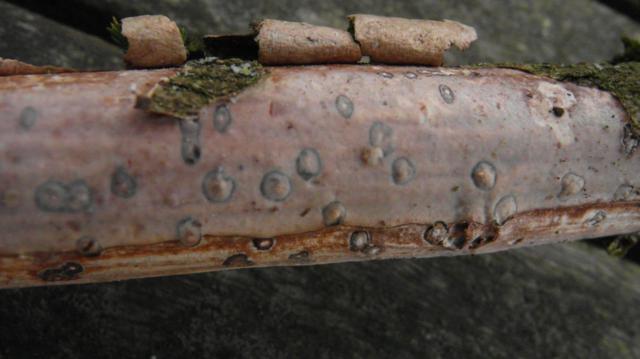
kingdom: Fungi
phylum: Basidiomycota
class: Agaricomycetes
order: Corticiales
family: Vuilleminiaceae
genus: Vuilleminia
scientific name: Vuilleminia comedens
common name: almindelig barksprænger
